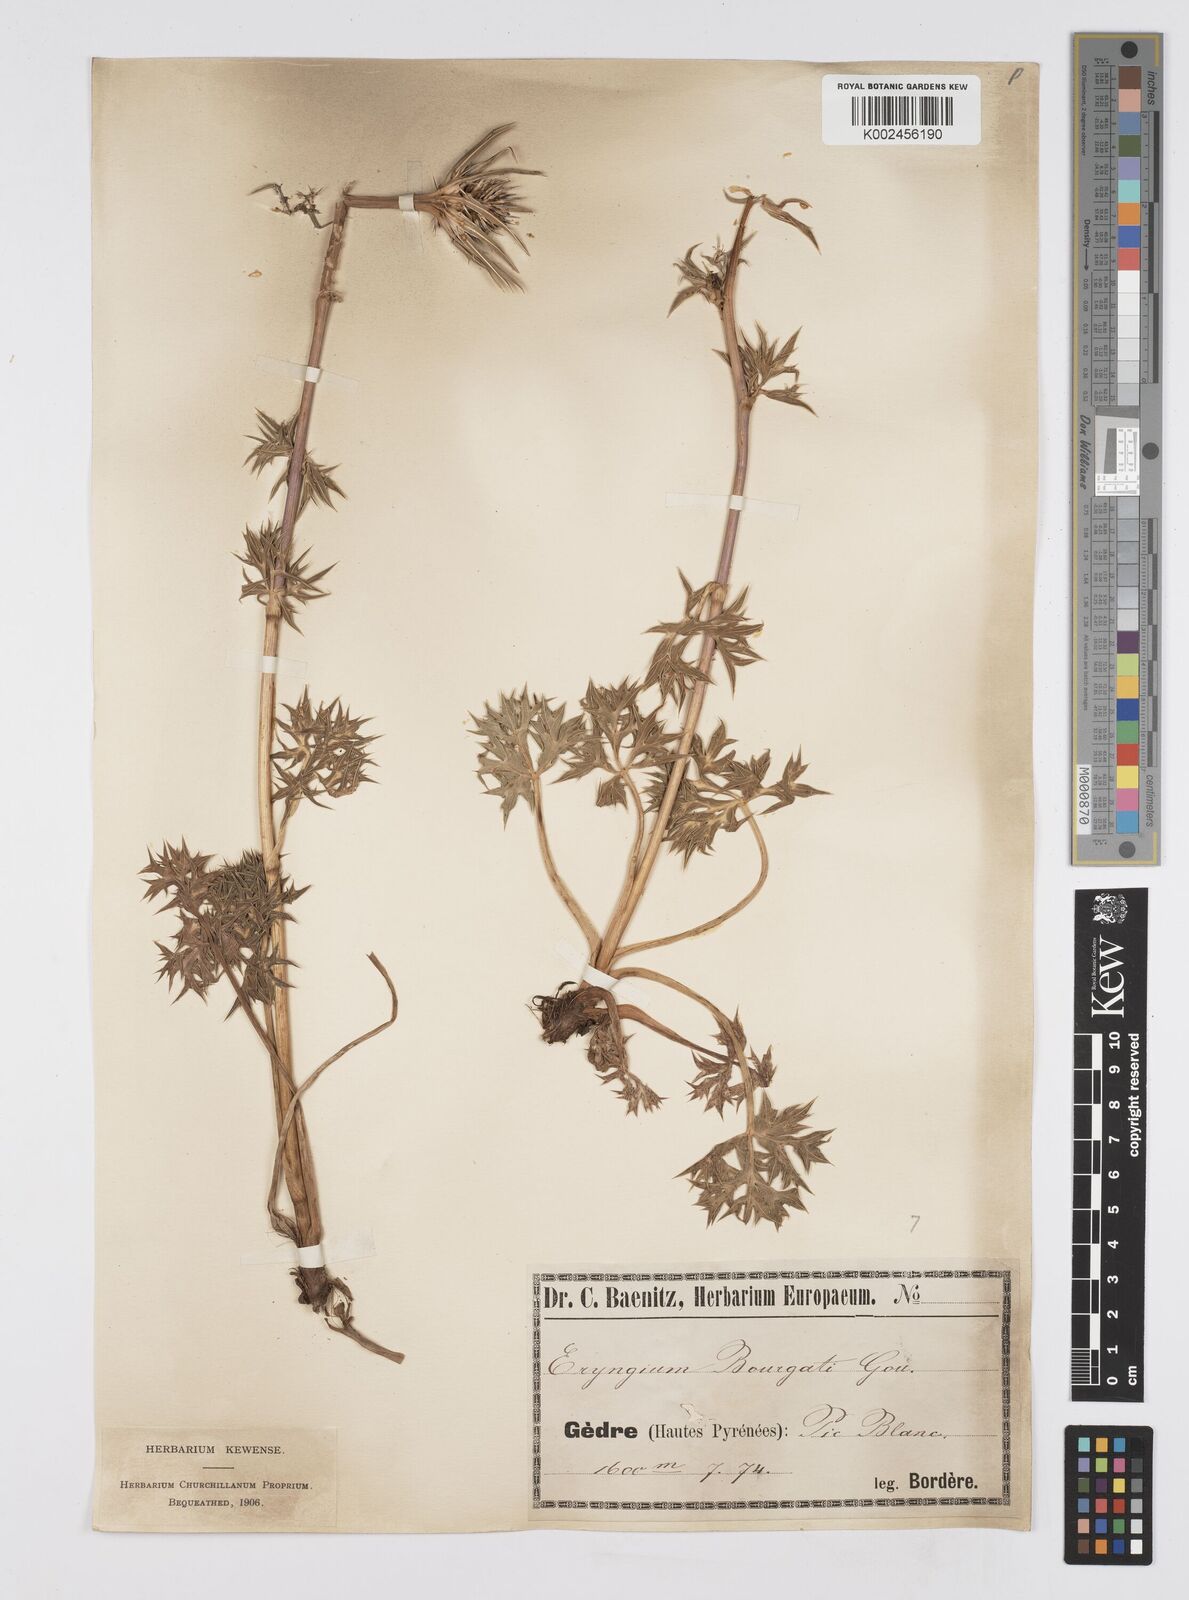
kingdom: Plantae
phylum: Tracheophyta
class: Magnoliopsida
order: Apiales
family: Apiaceae
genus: Eryngium
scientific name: Eryngium bourgatii
